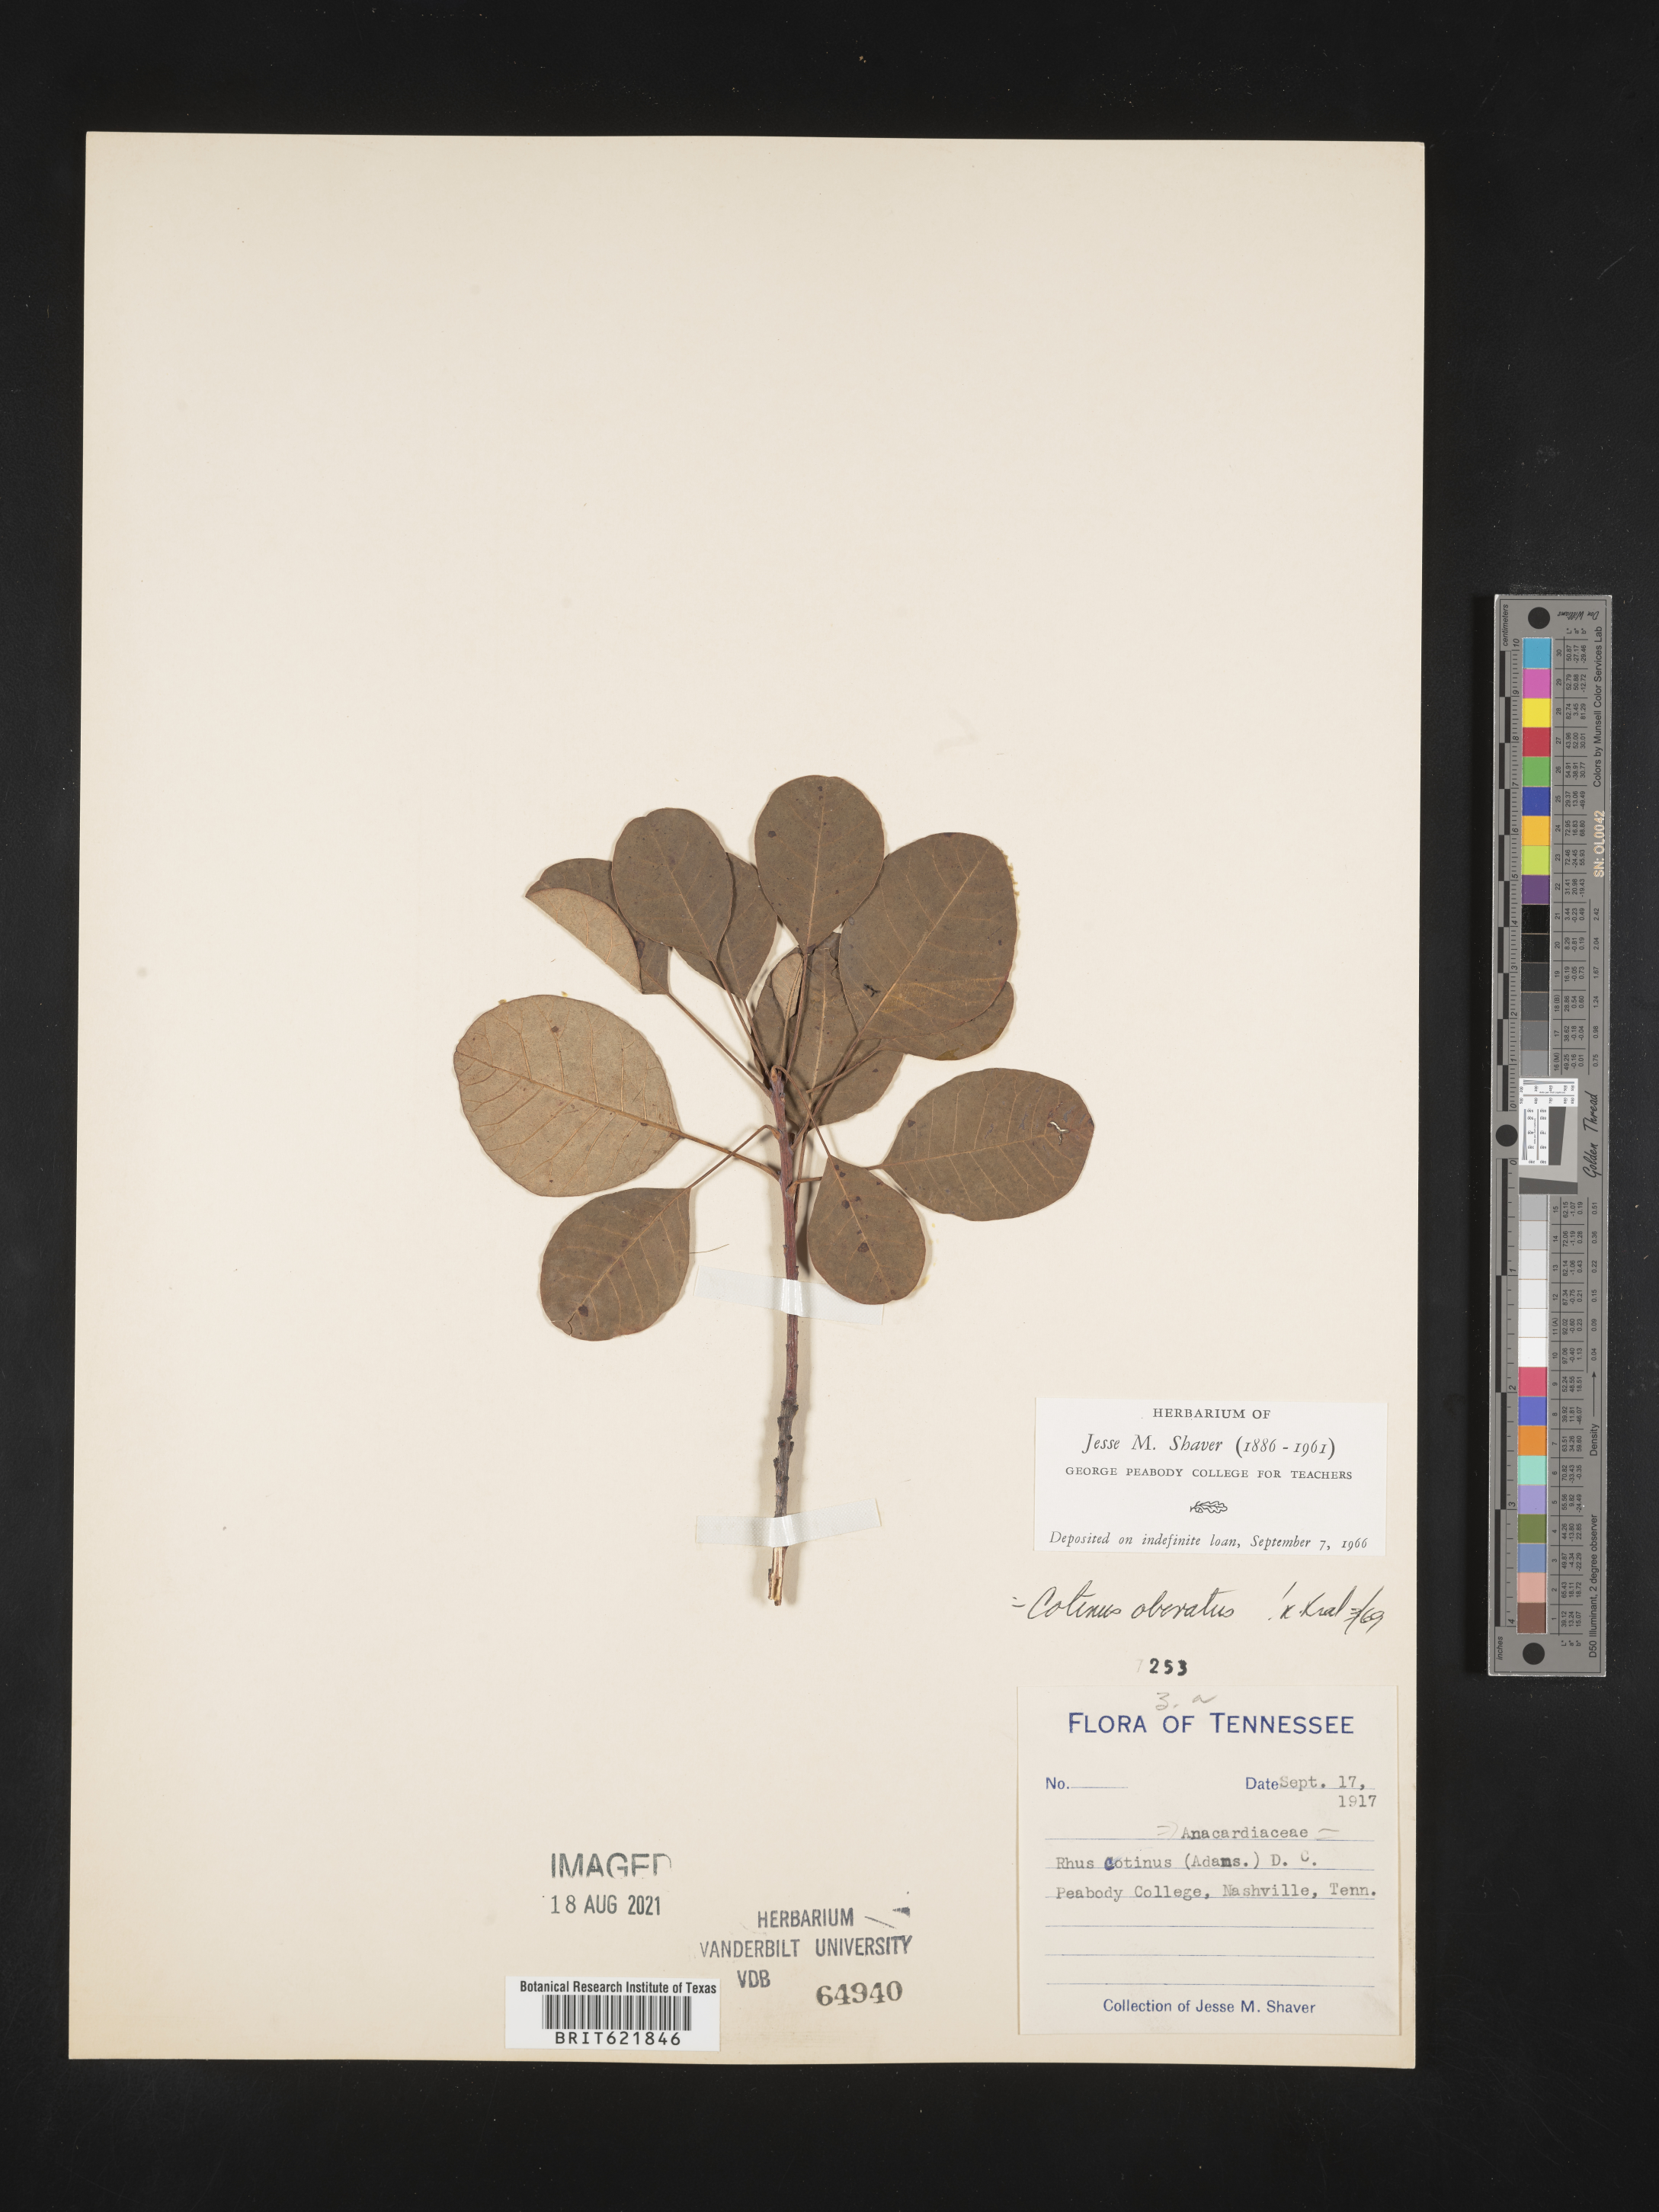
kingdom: Plantae
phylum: Tracheophyta
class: Magnoliopsida
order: Sapindales
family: Anacardiaceae
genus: Cotinus
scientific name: Cotinus obovatus
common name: Chittamwood
